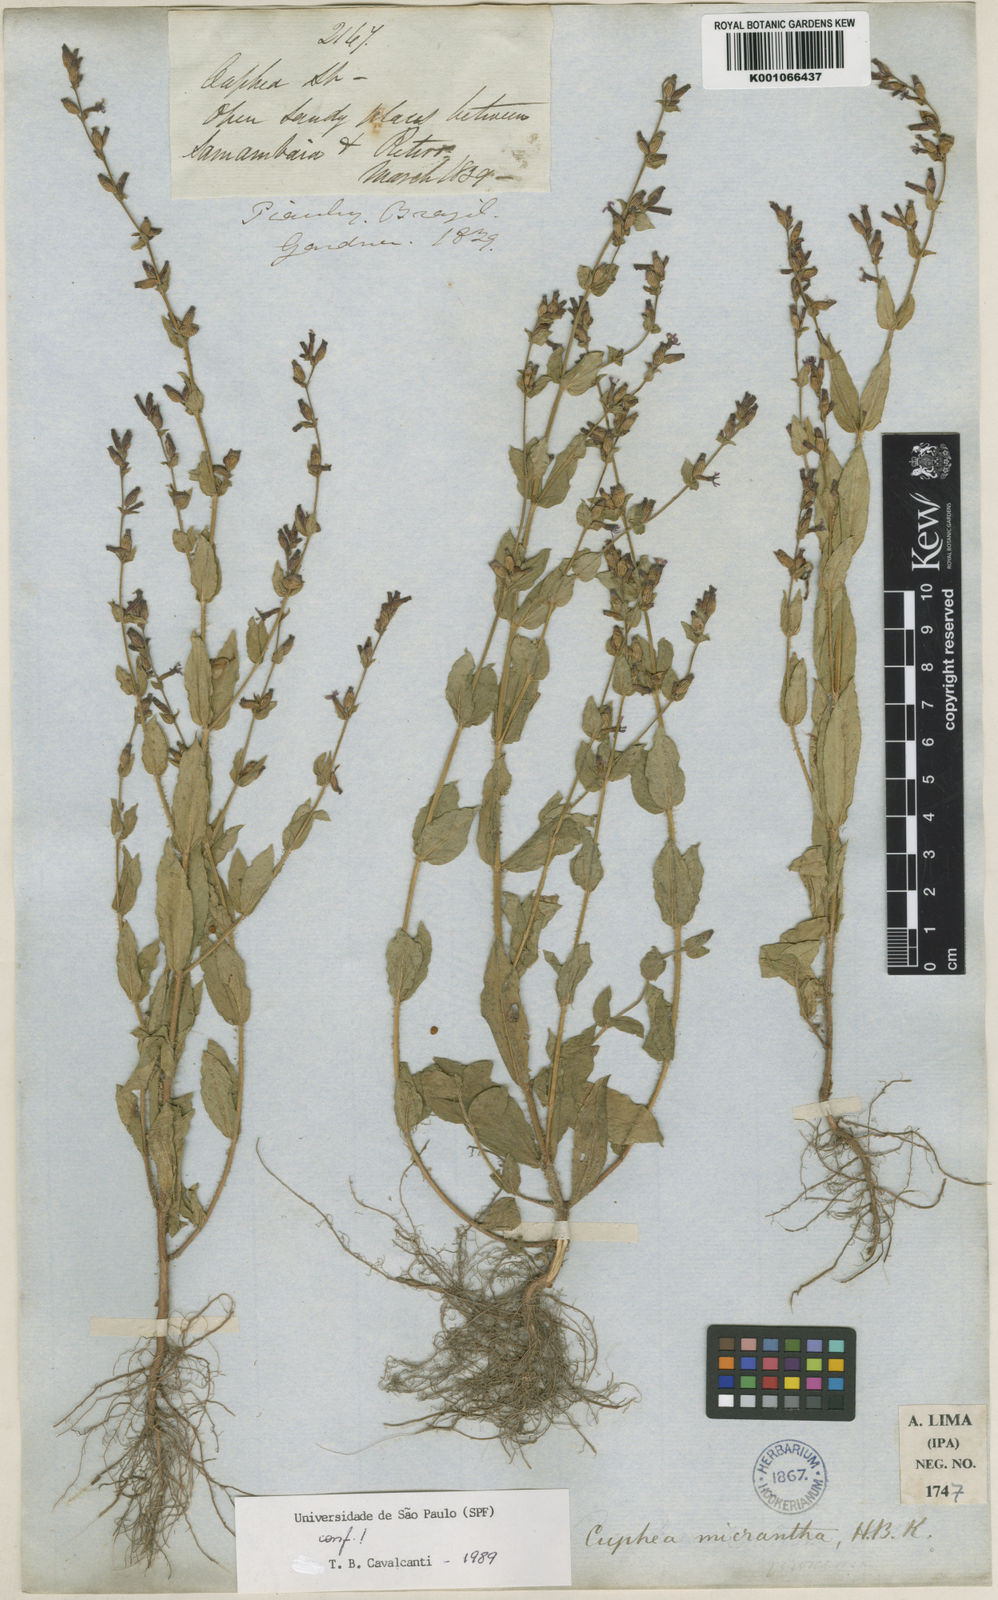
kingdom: Plantae
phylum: Tracheophyta
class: Magnoliopsida
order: Myrtales
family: Lythraceae
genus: Cuphea
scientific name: Cuphea micrantha
